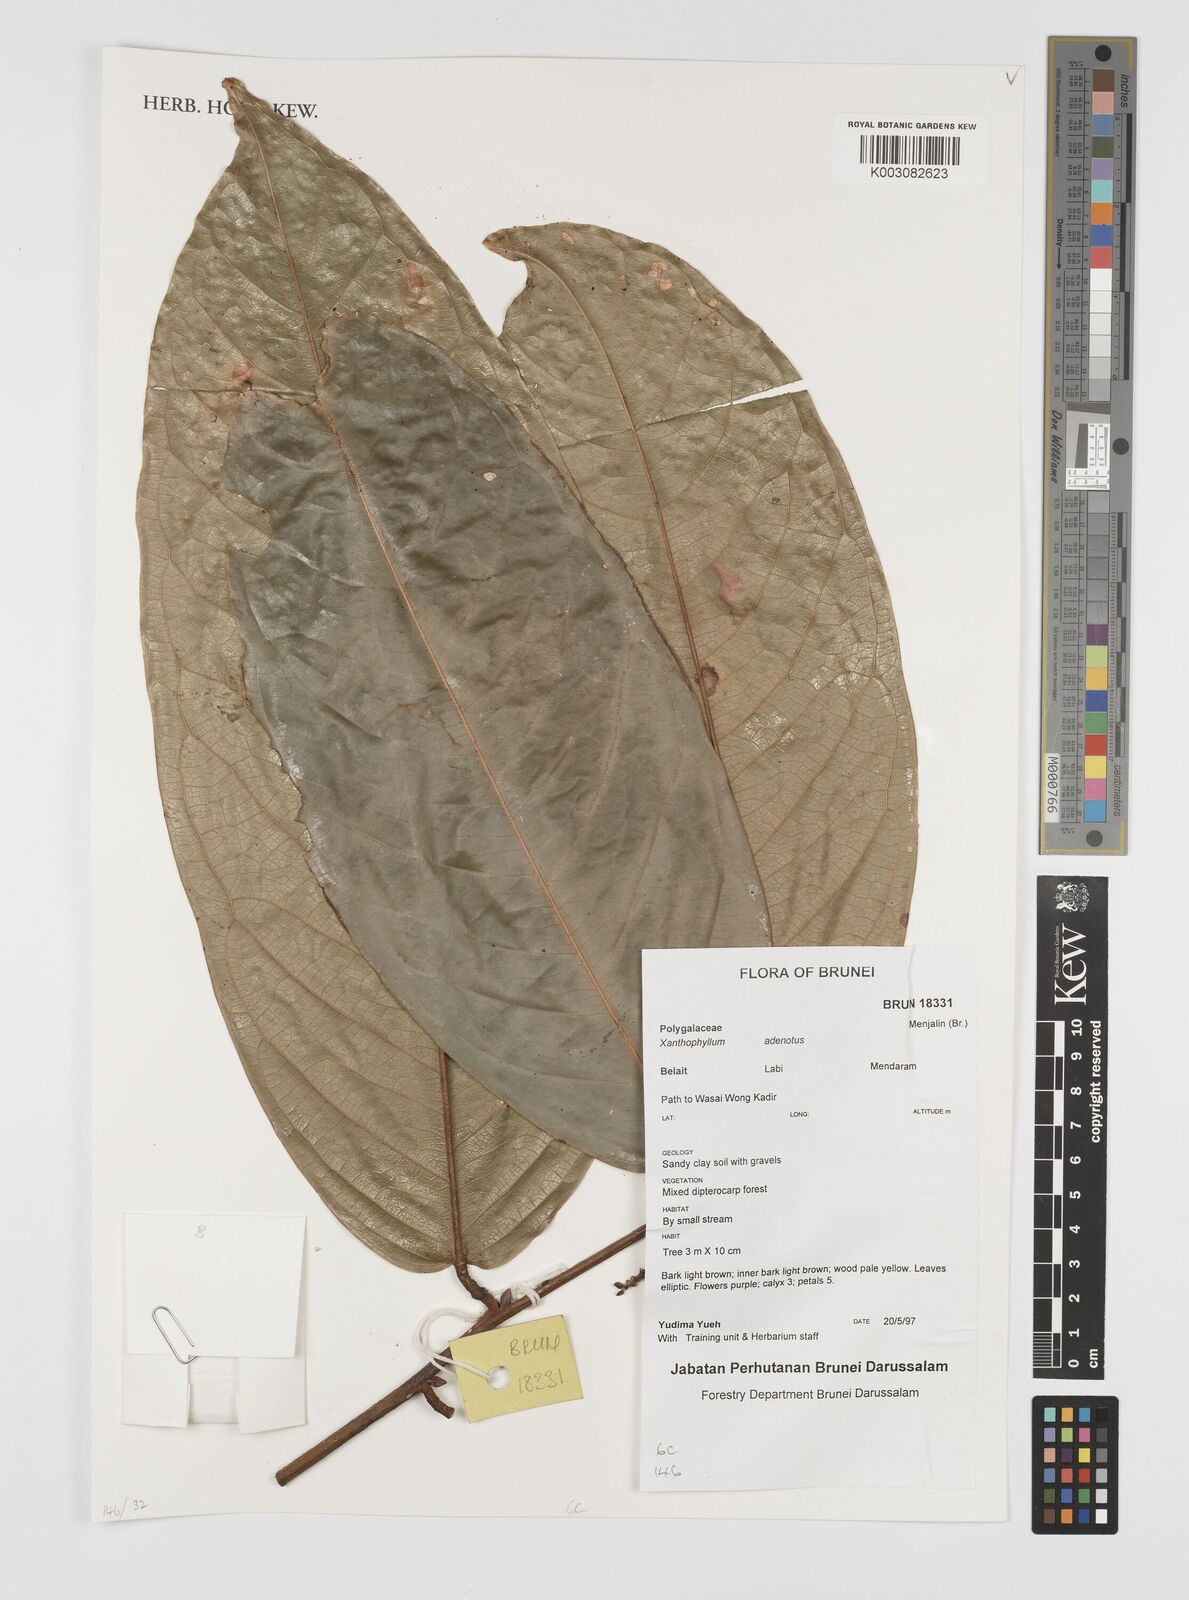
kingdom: Plantae
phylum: Tracheophyta
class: Magnoliopsida
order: Fabales
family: Polygalaceae
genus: Xanthophyllum
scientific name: Xanthophyllum adenotus
